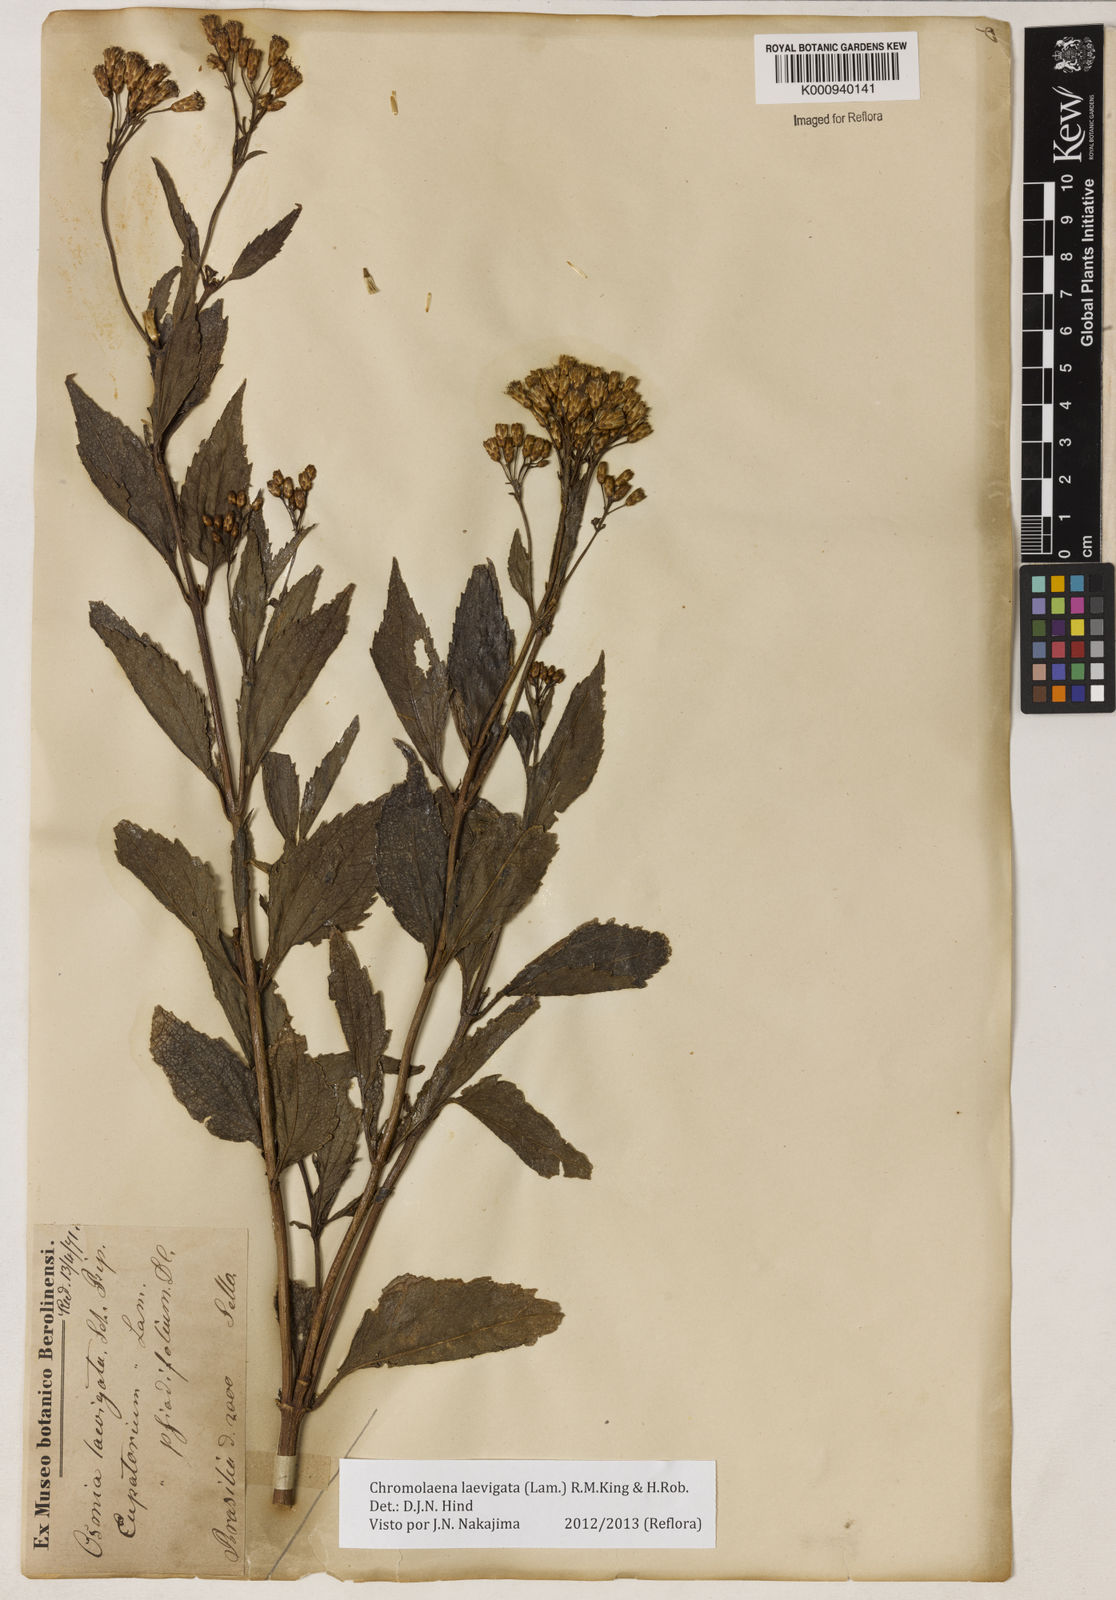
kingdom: Plantae
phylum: Tracheophyta
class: Magnoliopsida
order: Asterales
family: Asteraceae
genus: Chromolaena
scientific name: Chromolaena laevigata
